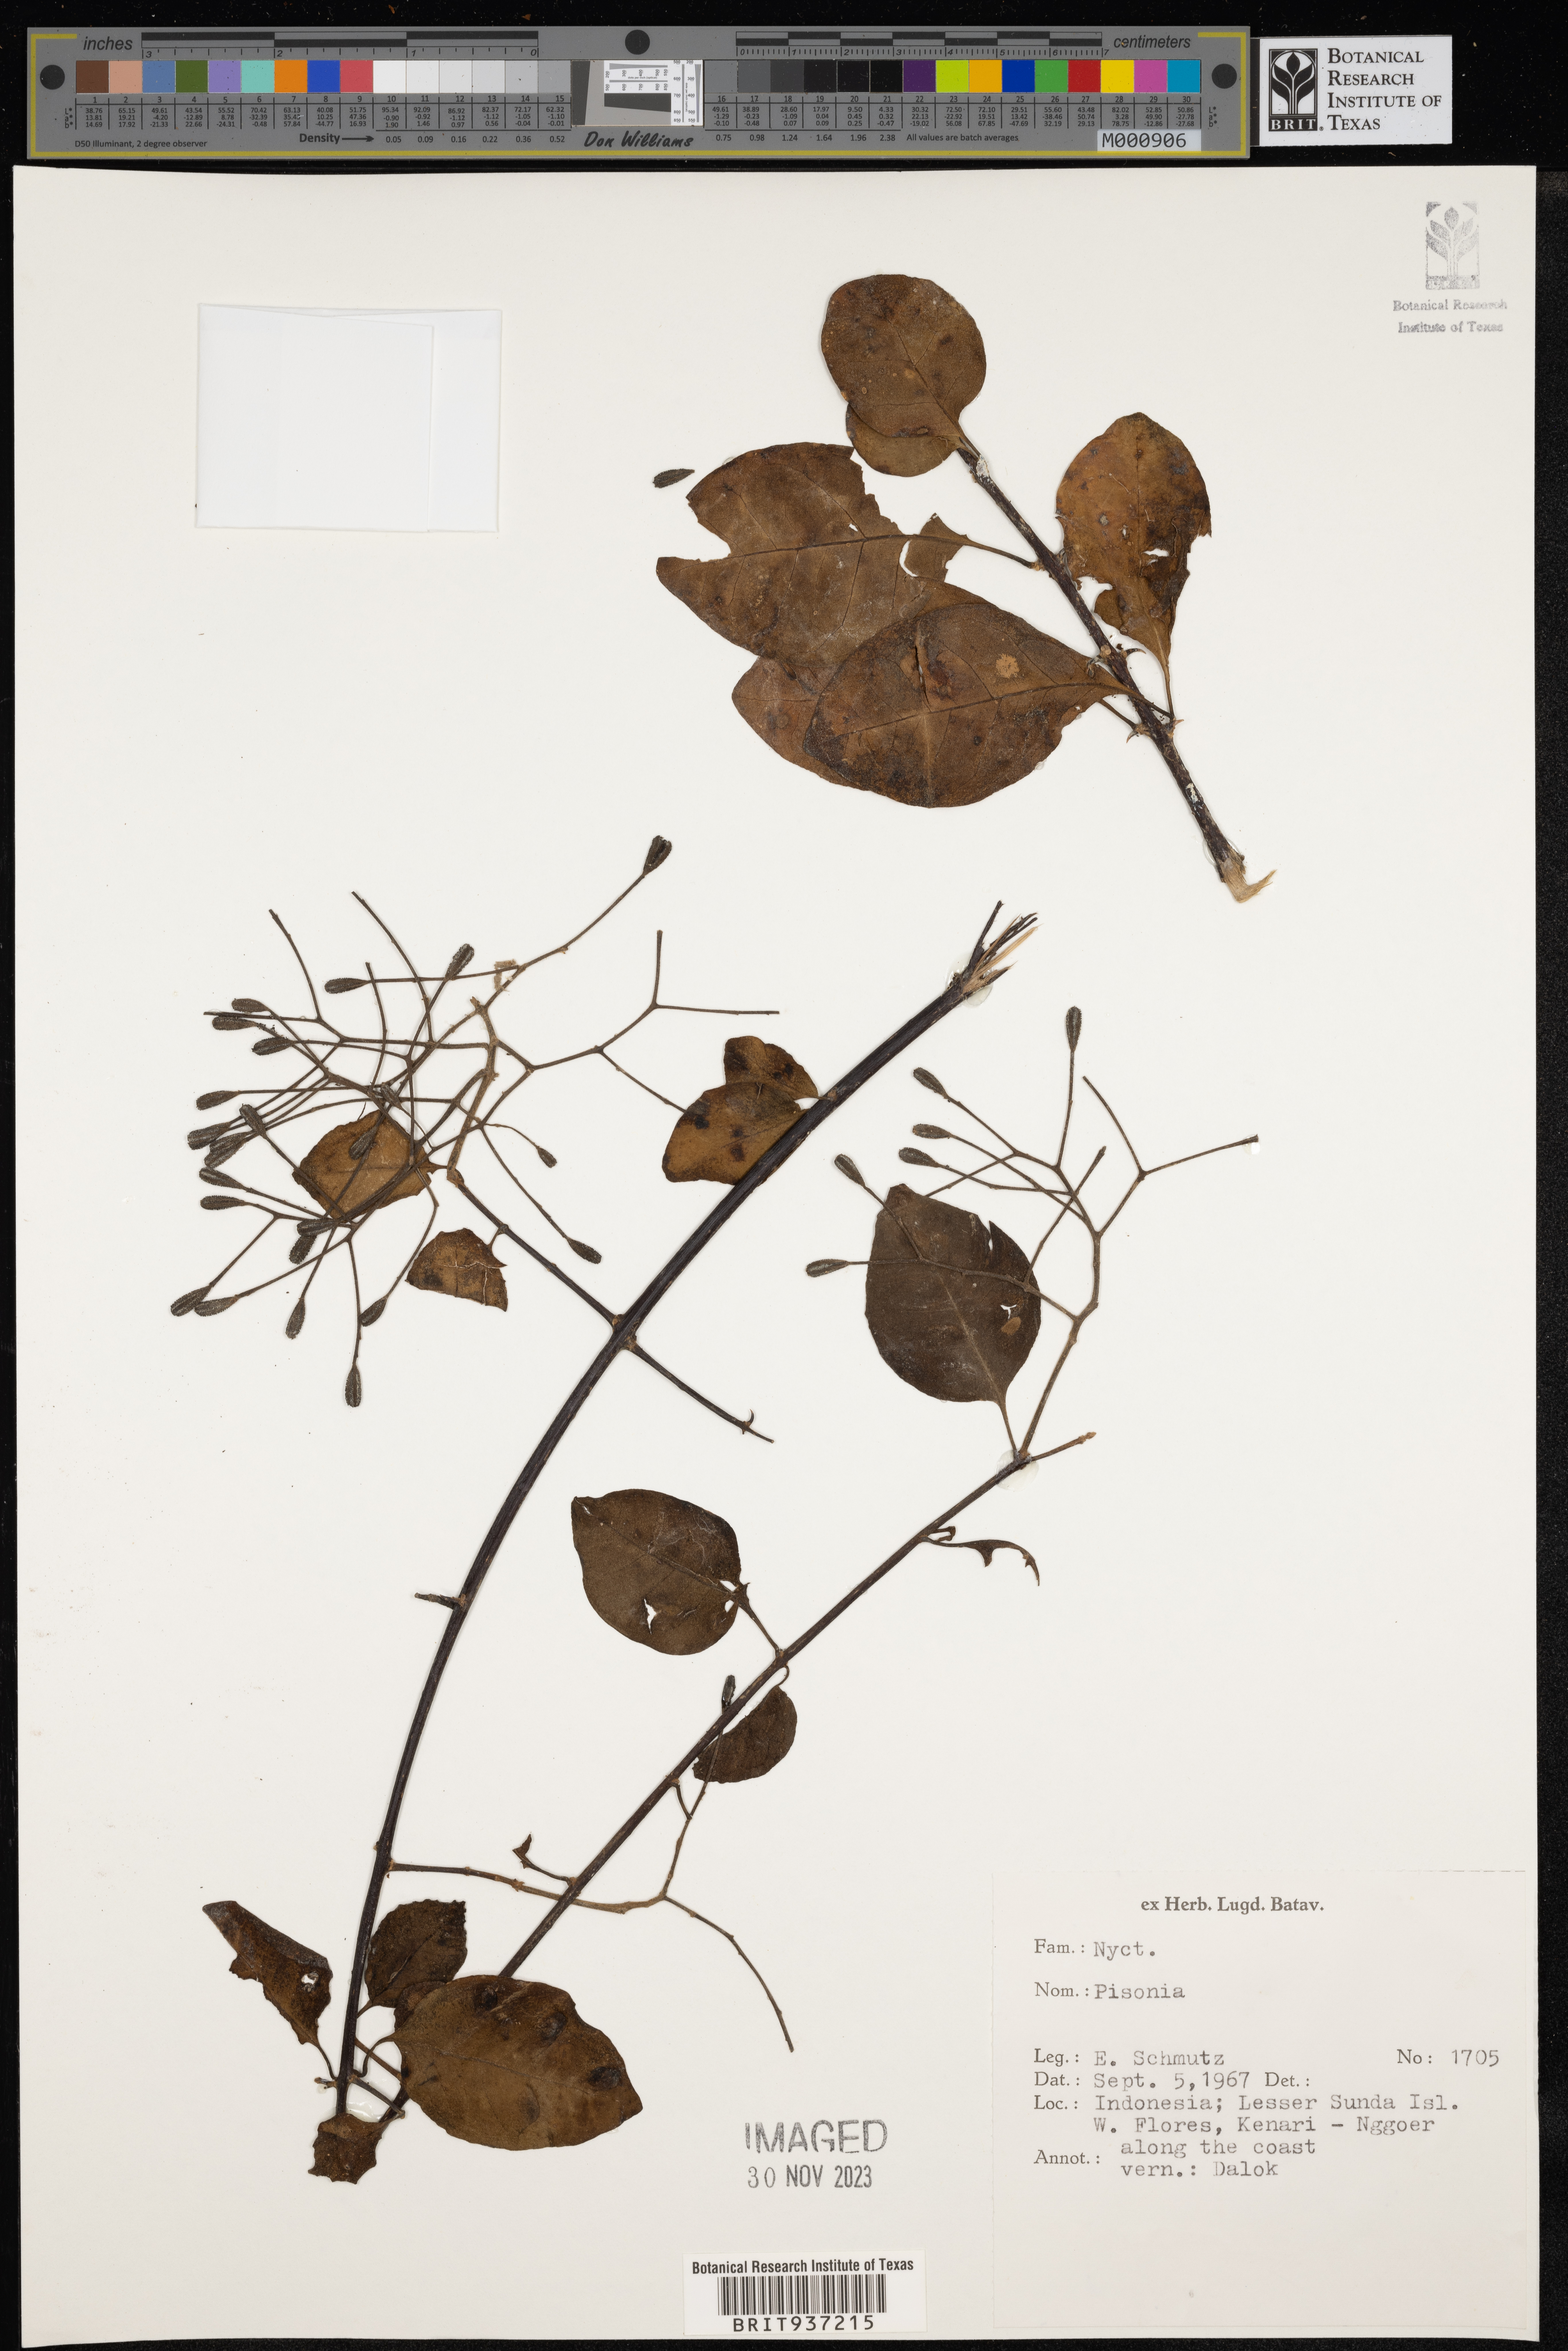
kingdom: Plantae
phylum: Tracheophyta
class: Magnoliopsida
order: Caryophyllales
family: Nyctaginaceae
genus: Pisonia
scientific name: Pisonia
